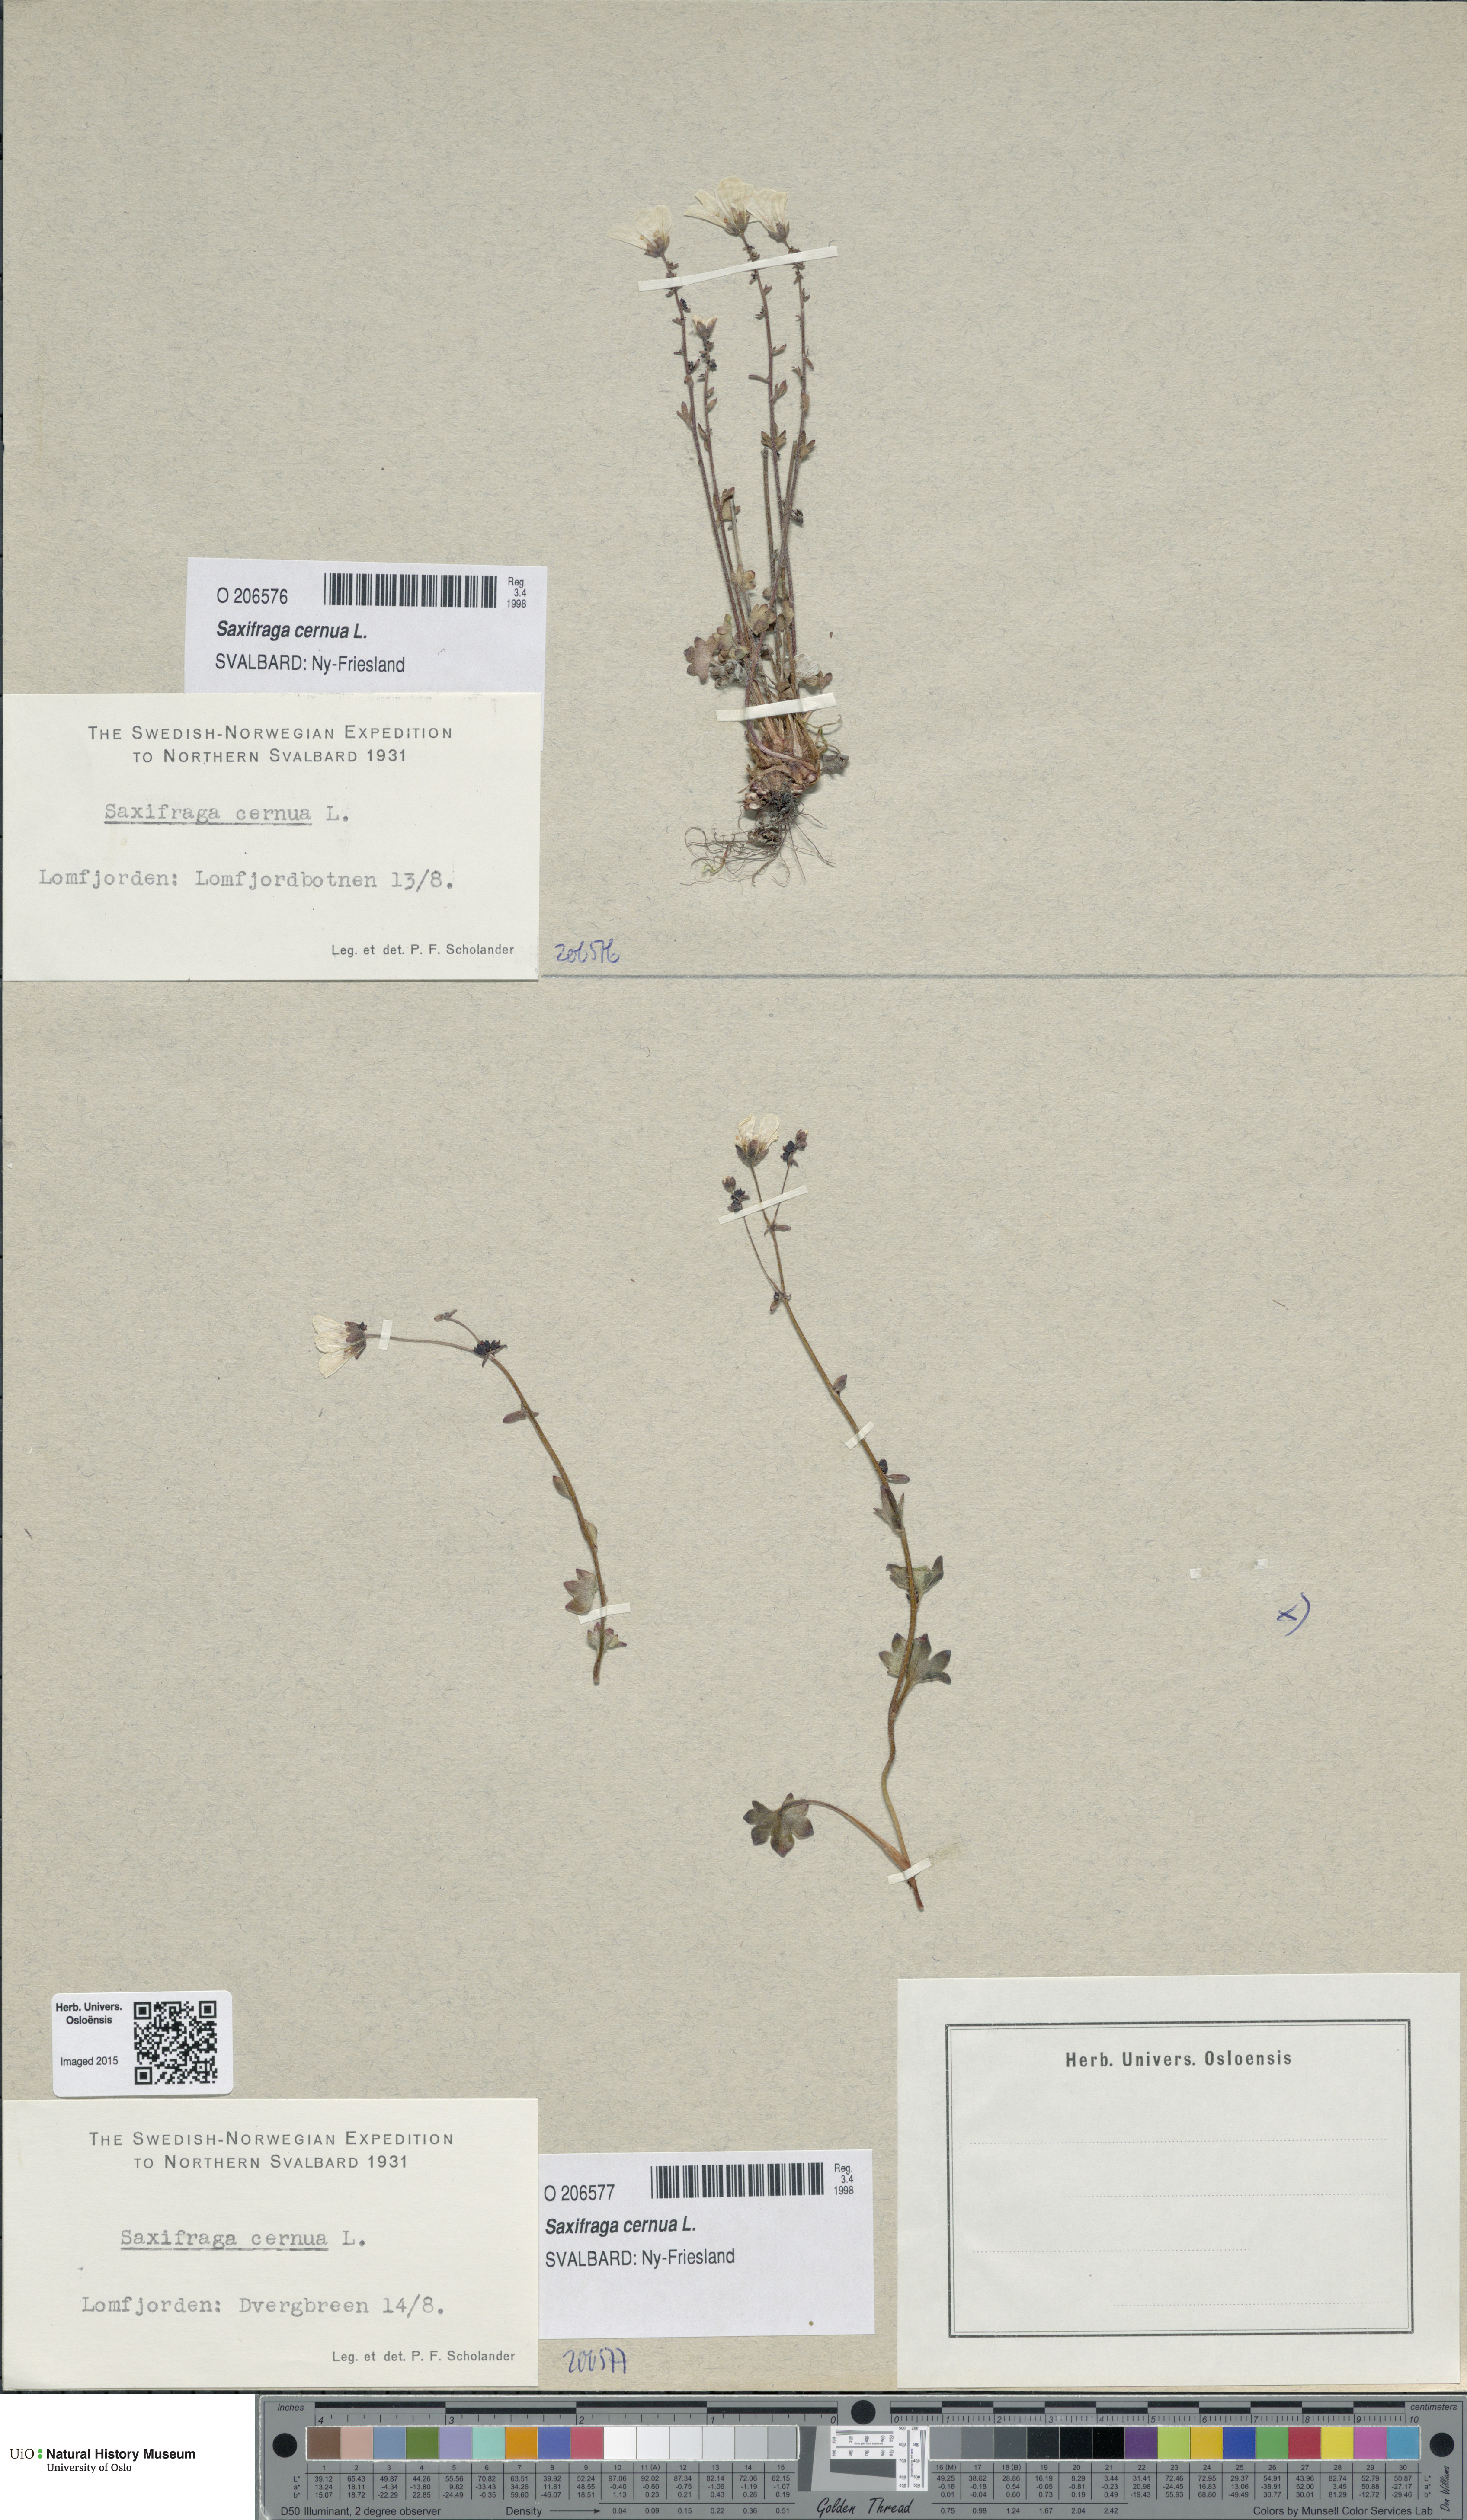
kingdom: Plantae
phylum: Tracheophyta
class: Magnoliopsida
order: Saxifragales
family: Saxifragaceae
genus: Saxifraga
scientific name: Saxifraga cernua
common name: Drooping saxifrage
